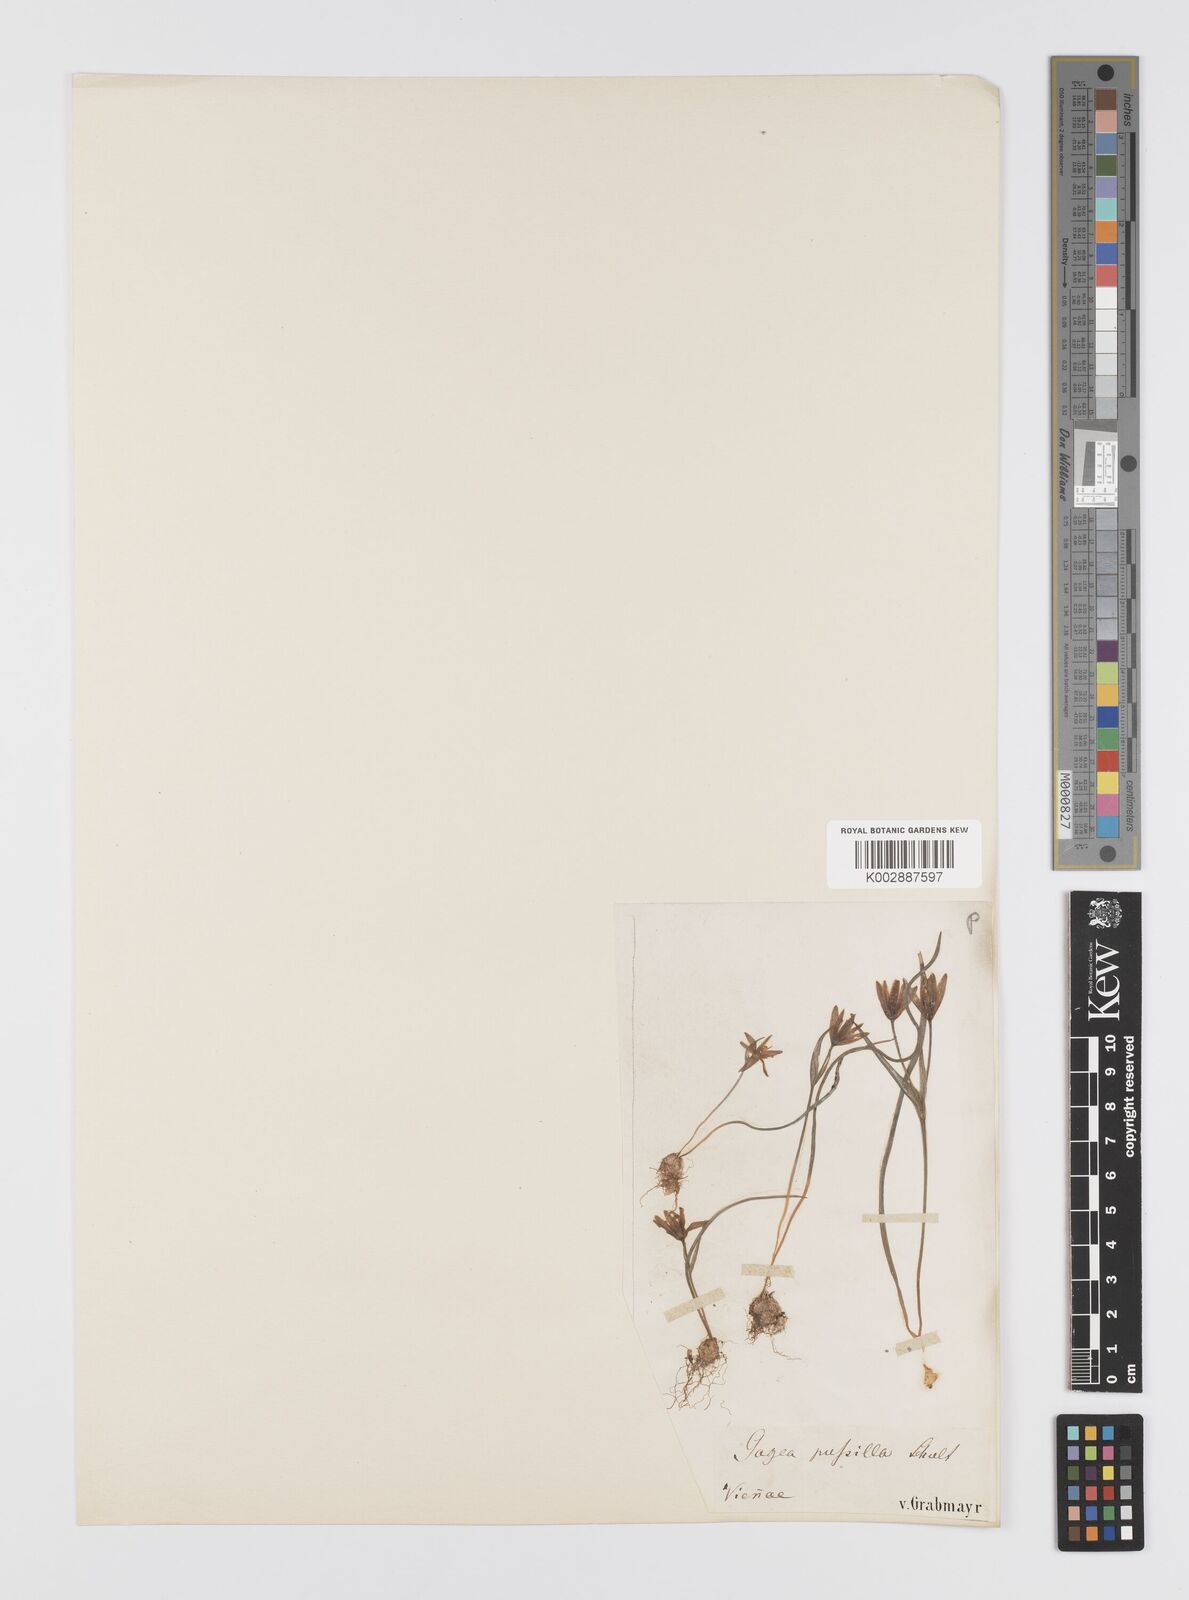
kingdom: Plantae
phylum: Tracheophyta
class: Liliopsida
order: Liliales
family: Liliaceae
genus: Gagea
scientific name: Gagea pusilla
